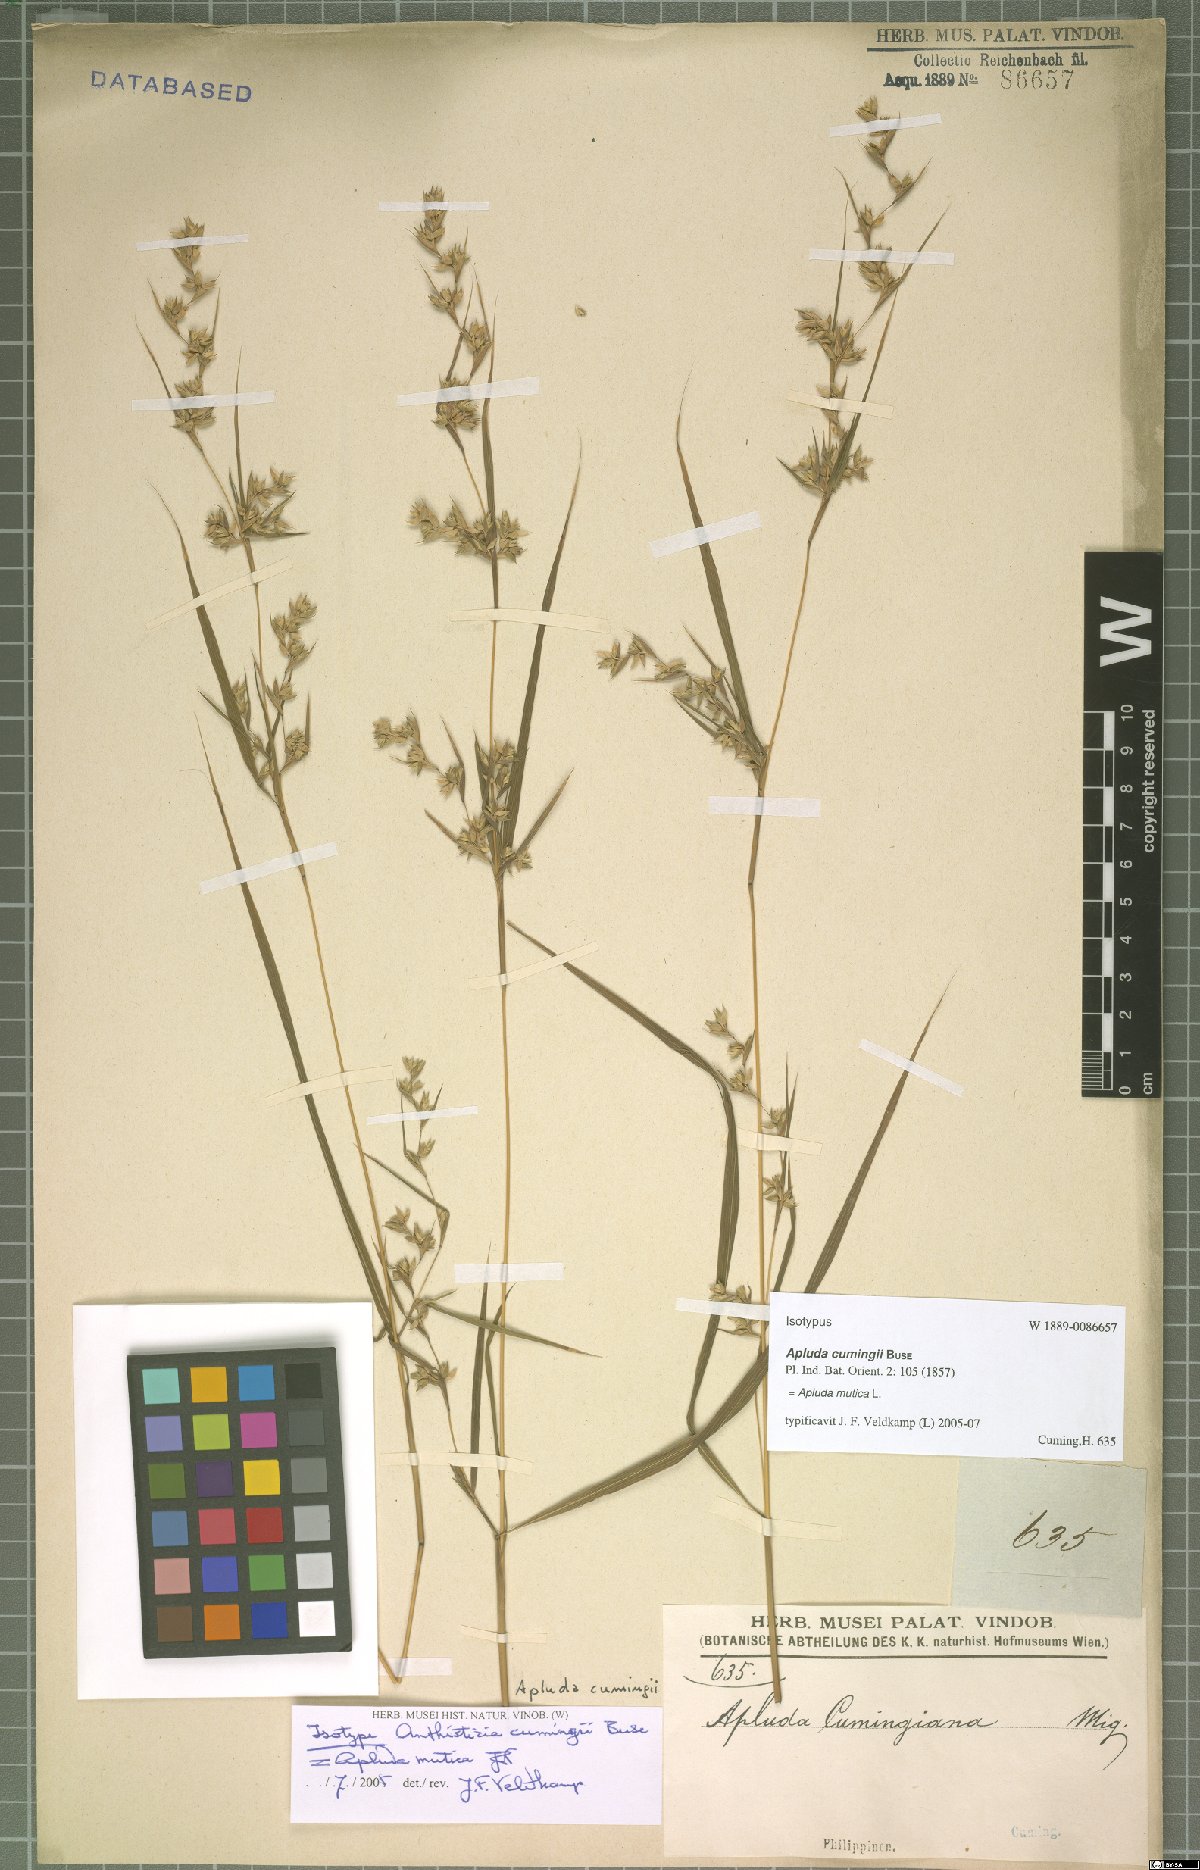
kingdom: Plantae
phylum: Tracheophyta
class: Liliopsida
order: Poales
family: Poaceae
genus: Apluda
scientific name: Apluda mutica
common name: Mauritian grass
